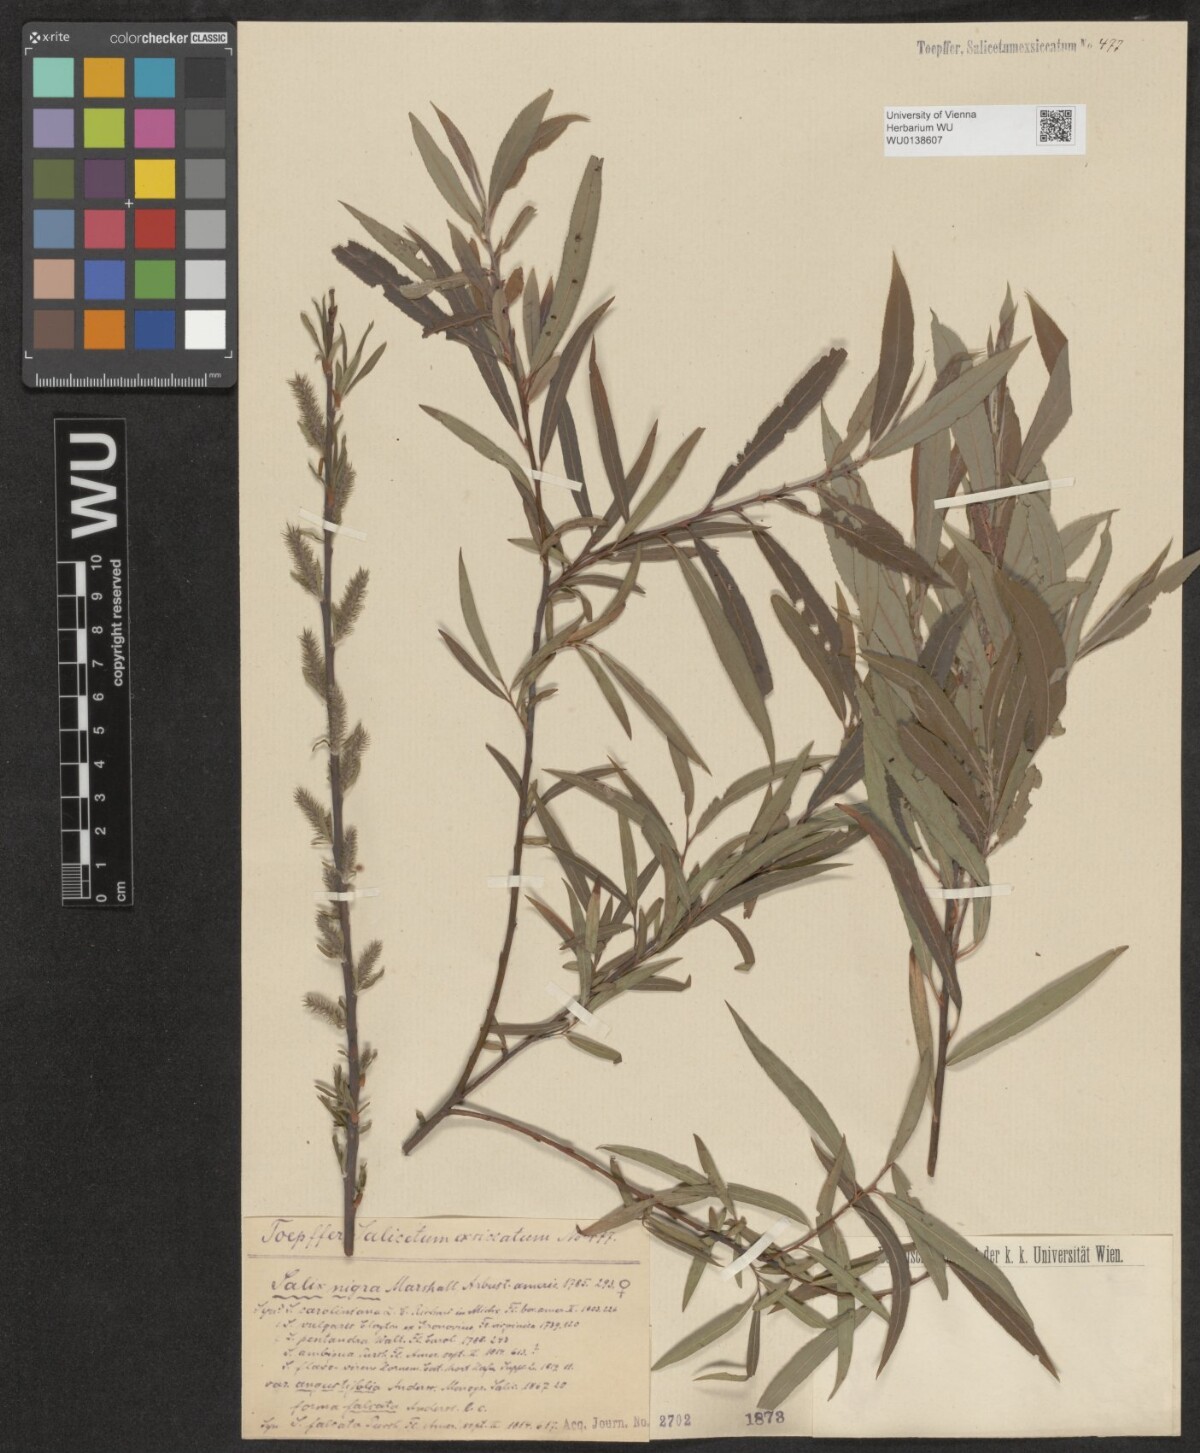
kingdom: Plantae
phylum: Tracheophyta
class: Magnoliopsida
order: Malpighiales
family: Salicaceae
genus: Salix
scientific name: Salix nigra
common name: Black willow
